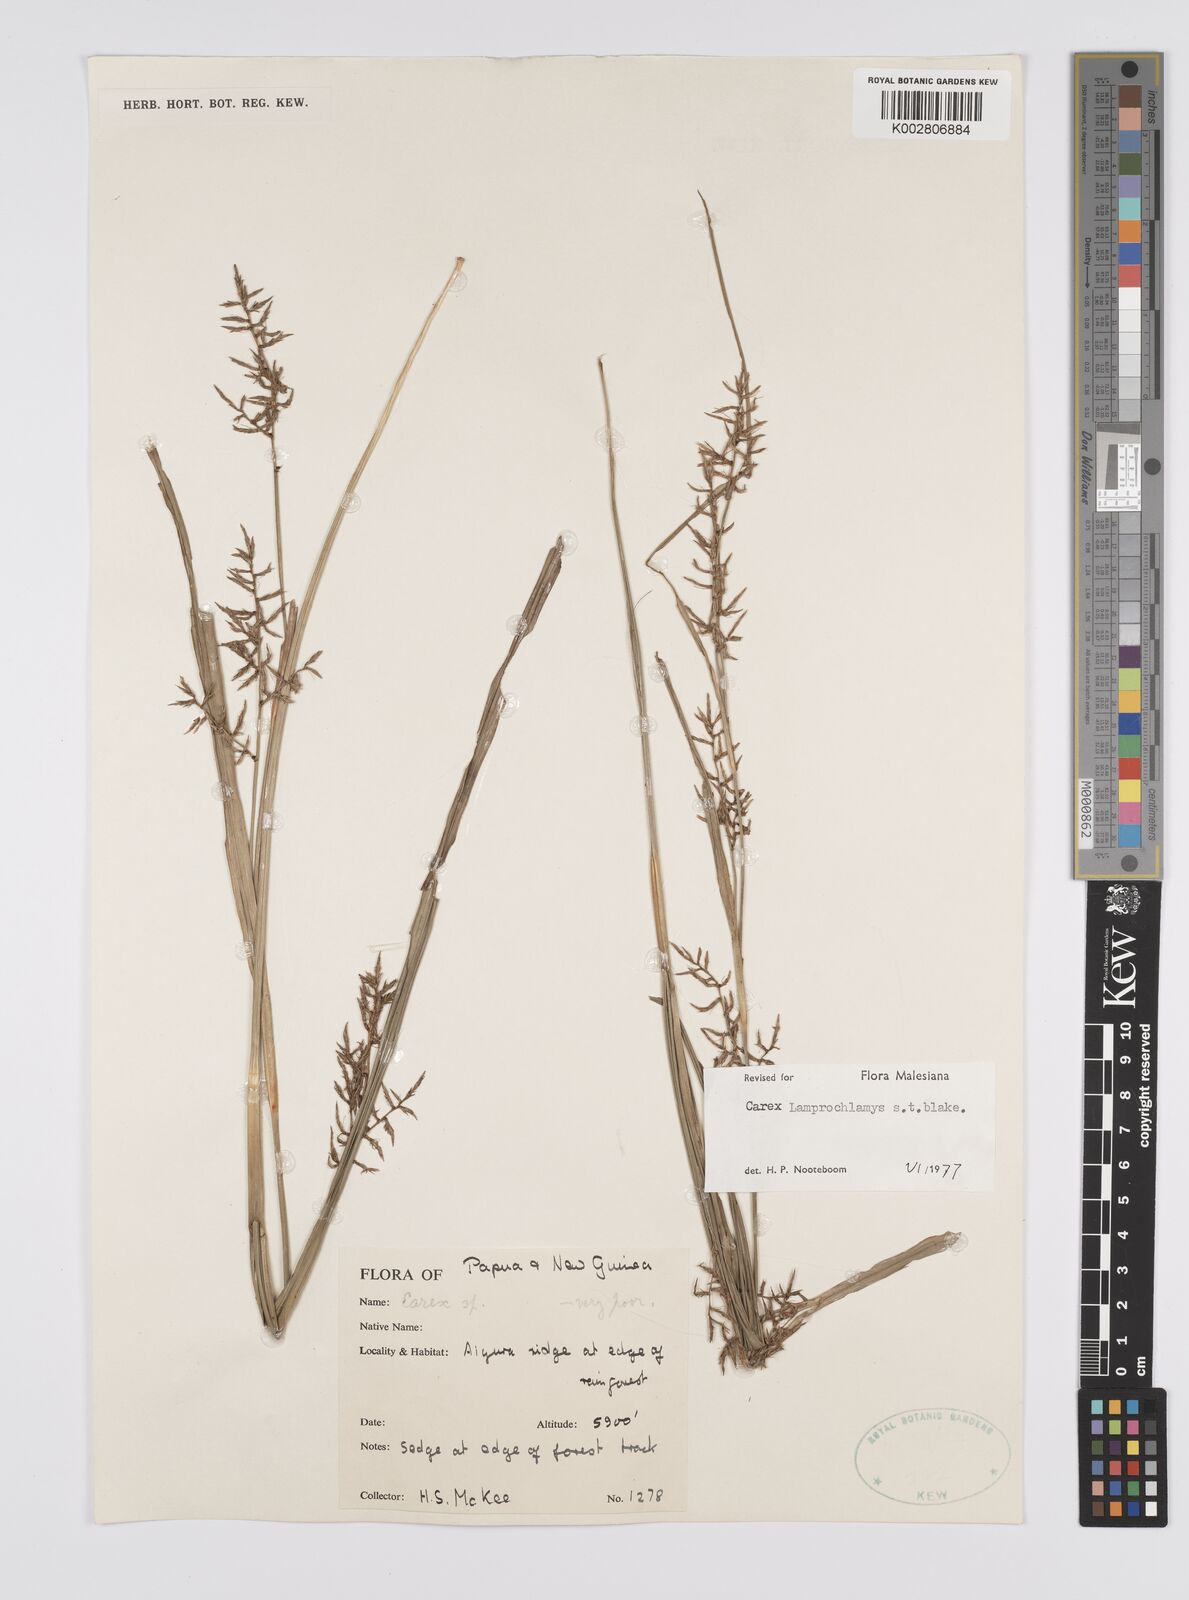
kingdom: Plantae
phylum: Tracheophyta
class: Liliopsida
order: Poales
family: Cyperaceae
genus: Carex
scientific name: Carex lamprochlamys
